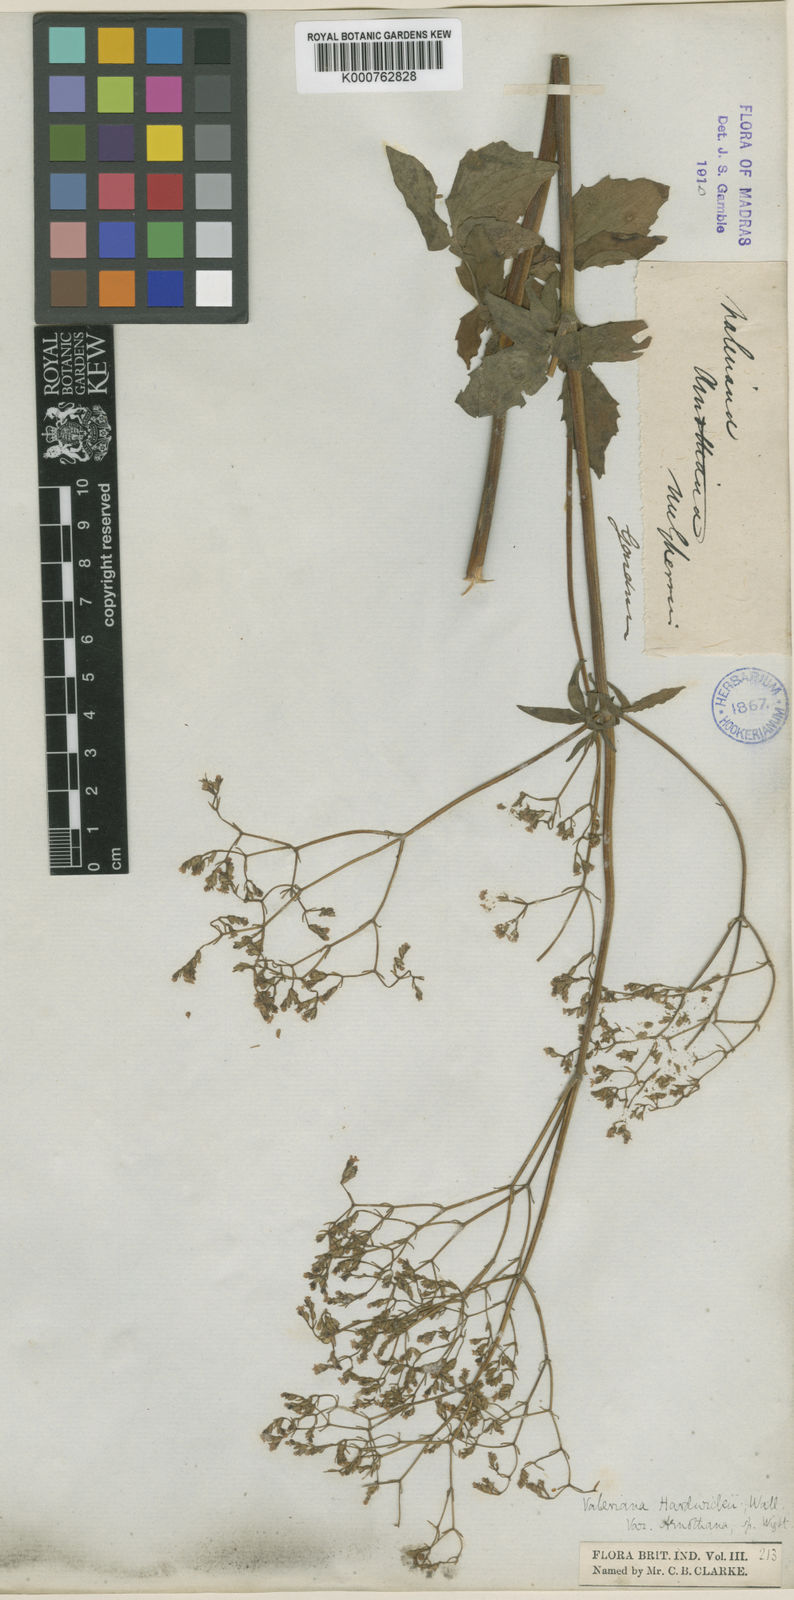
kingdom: Plantae
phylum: Tracheophyta
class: Magnoliopsida
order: Dipsacales
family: Caprifoliaceae
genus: Valeriana
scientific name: Valeriana hardwickei
